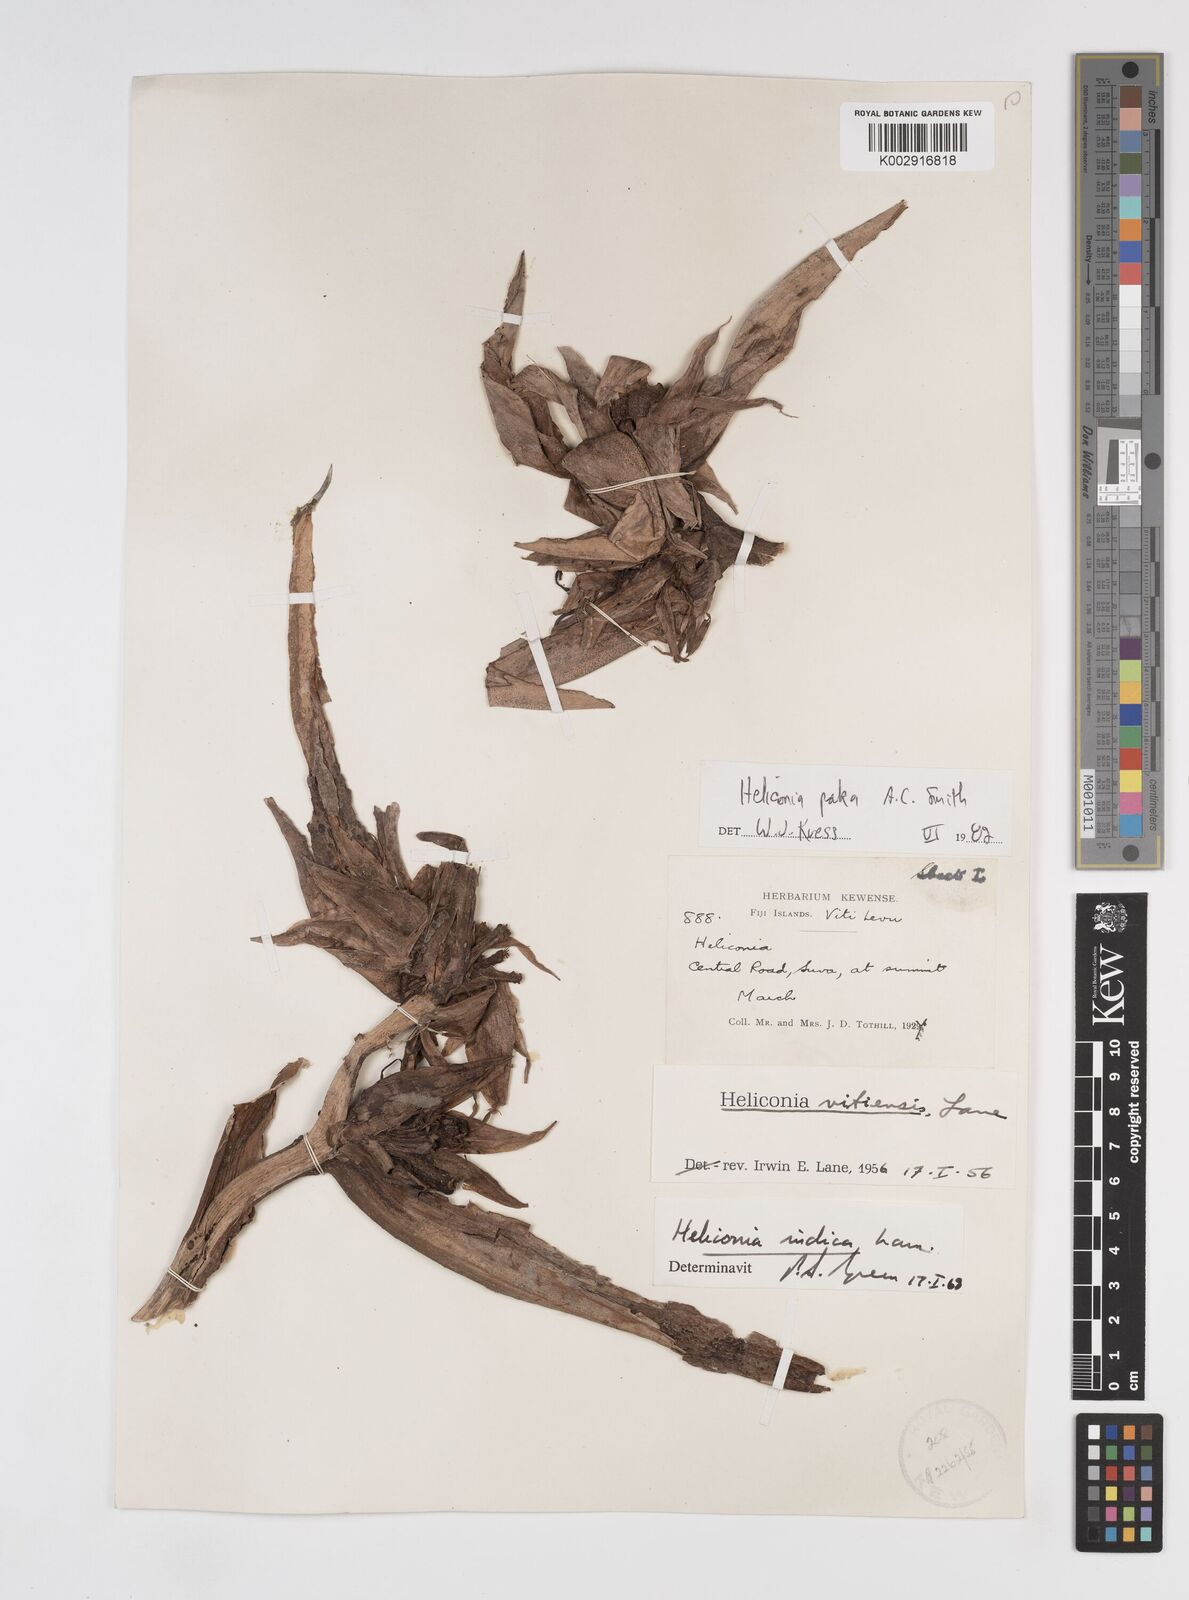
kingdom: Plantae
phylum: Tracheophyta
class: Liliopsida
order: Zingiberales
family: Heliconiaceae
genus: Heliconia
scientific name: Heliconia paka
